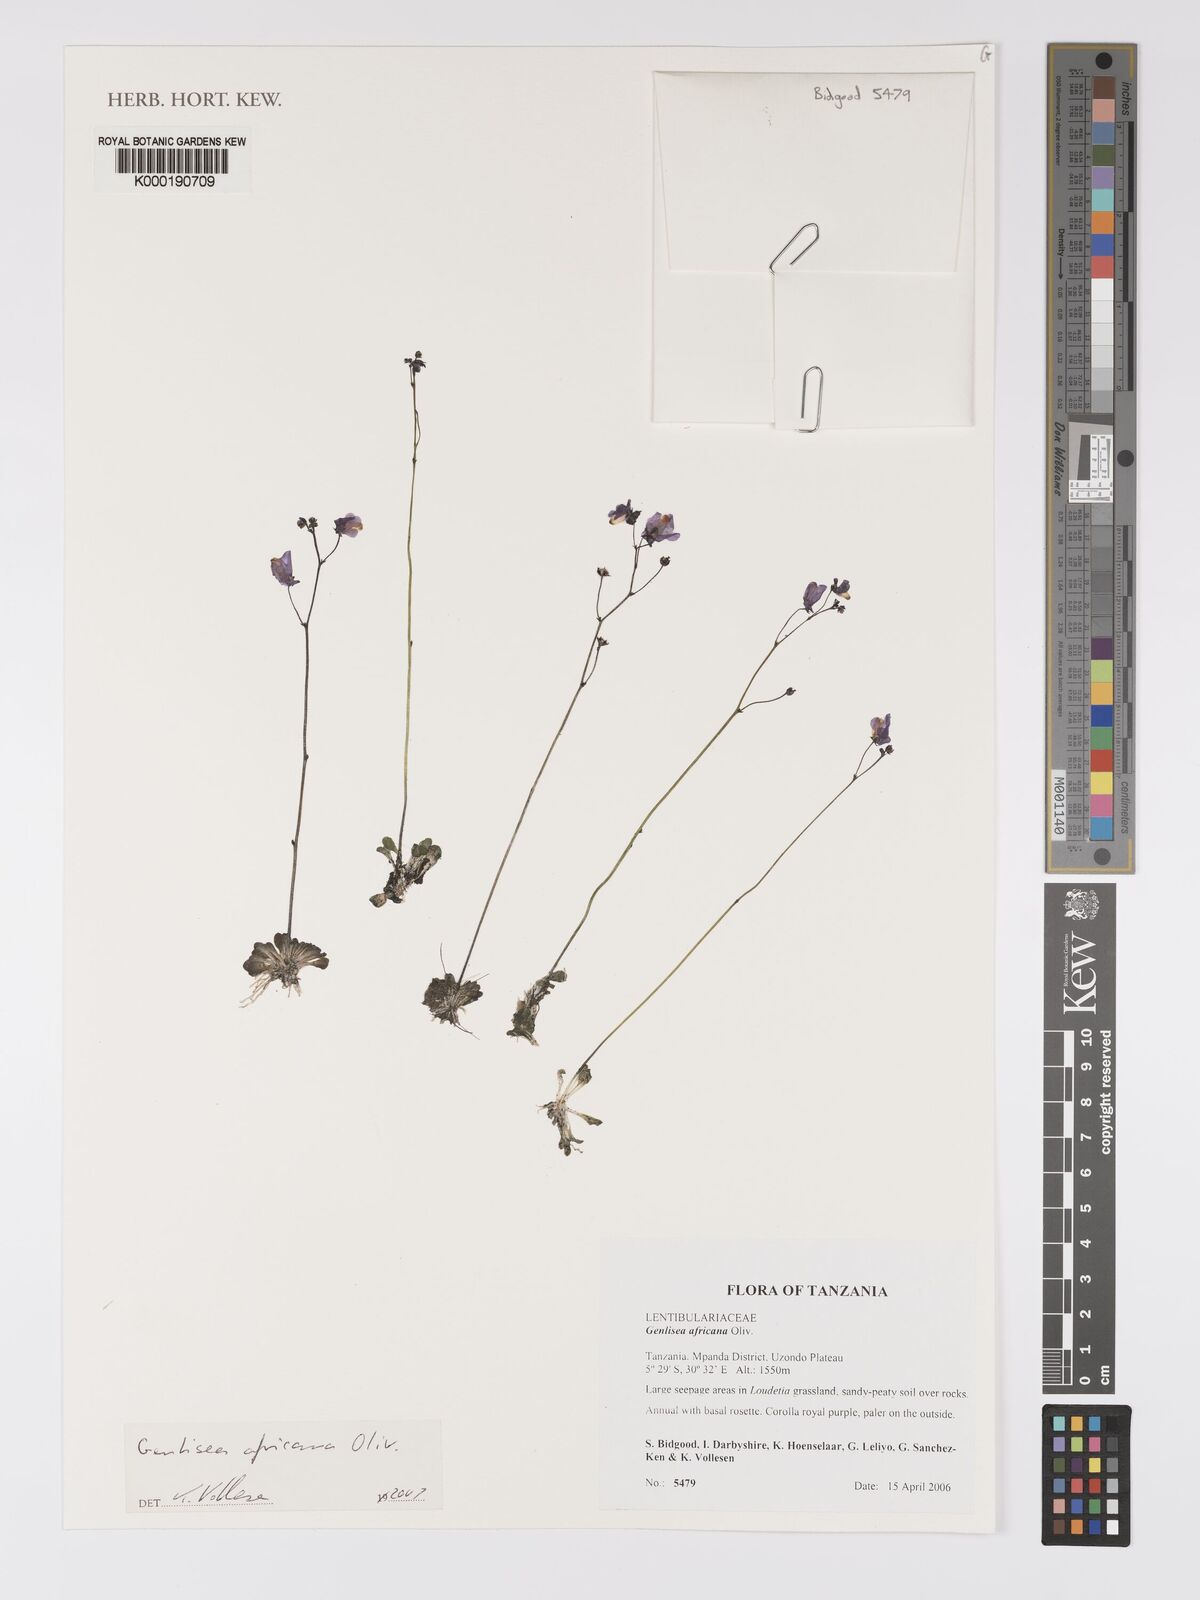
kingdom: Plantae
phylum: Tracheophyta
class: Magnoliopsida
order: Lamiales
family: Lentibulariaceae
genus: Genlisea
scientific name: Genlisea africana
